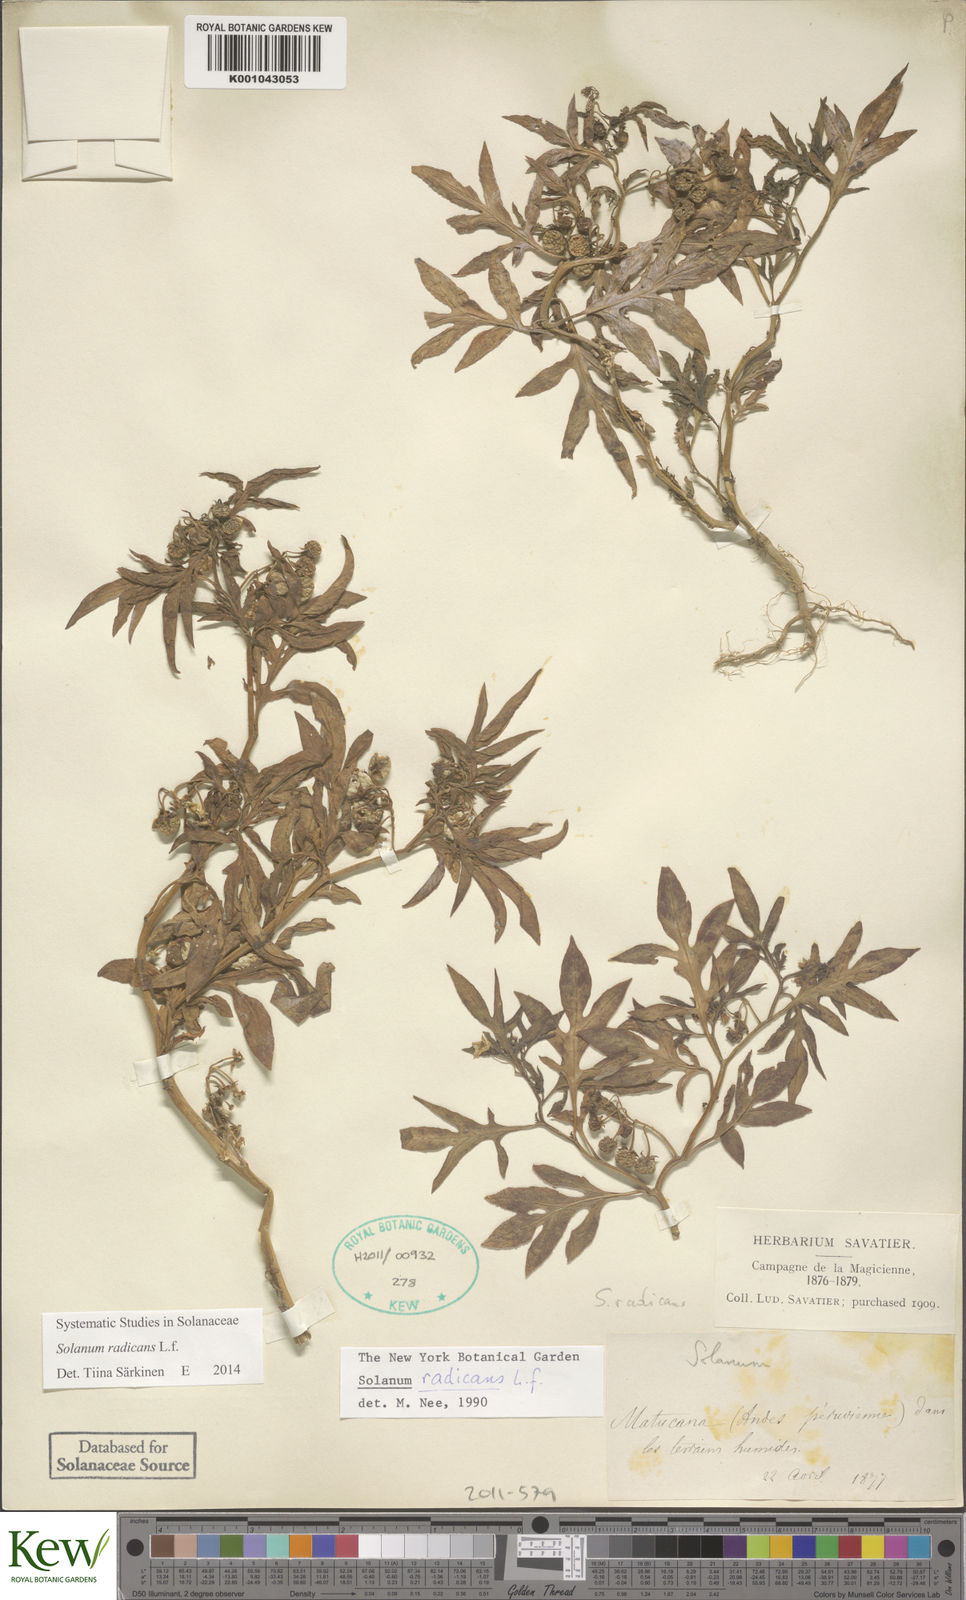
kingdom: Plantae
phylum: Tracheophyta
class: Magnoliopsida
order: Solanales
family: Solanaceae
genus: Solanum
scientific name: Solanum radicans
